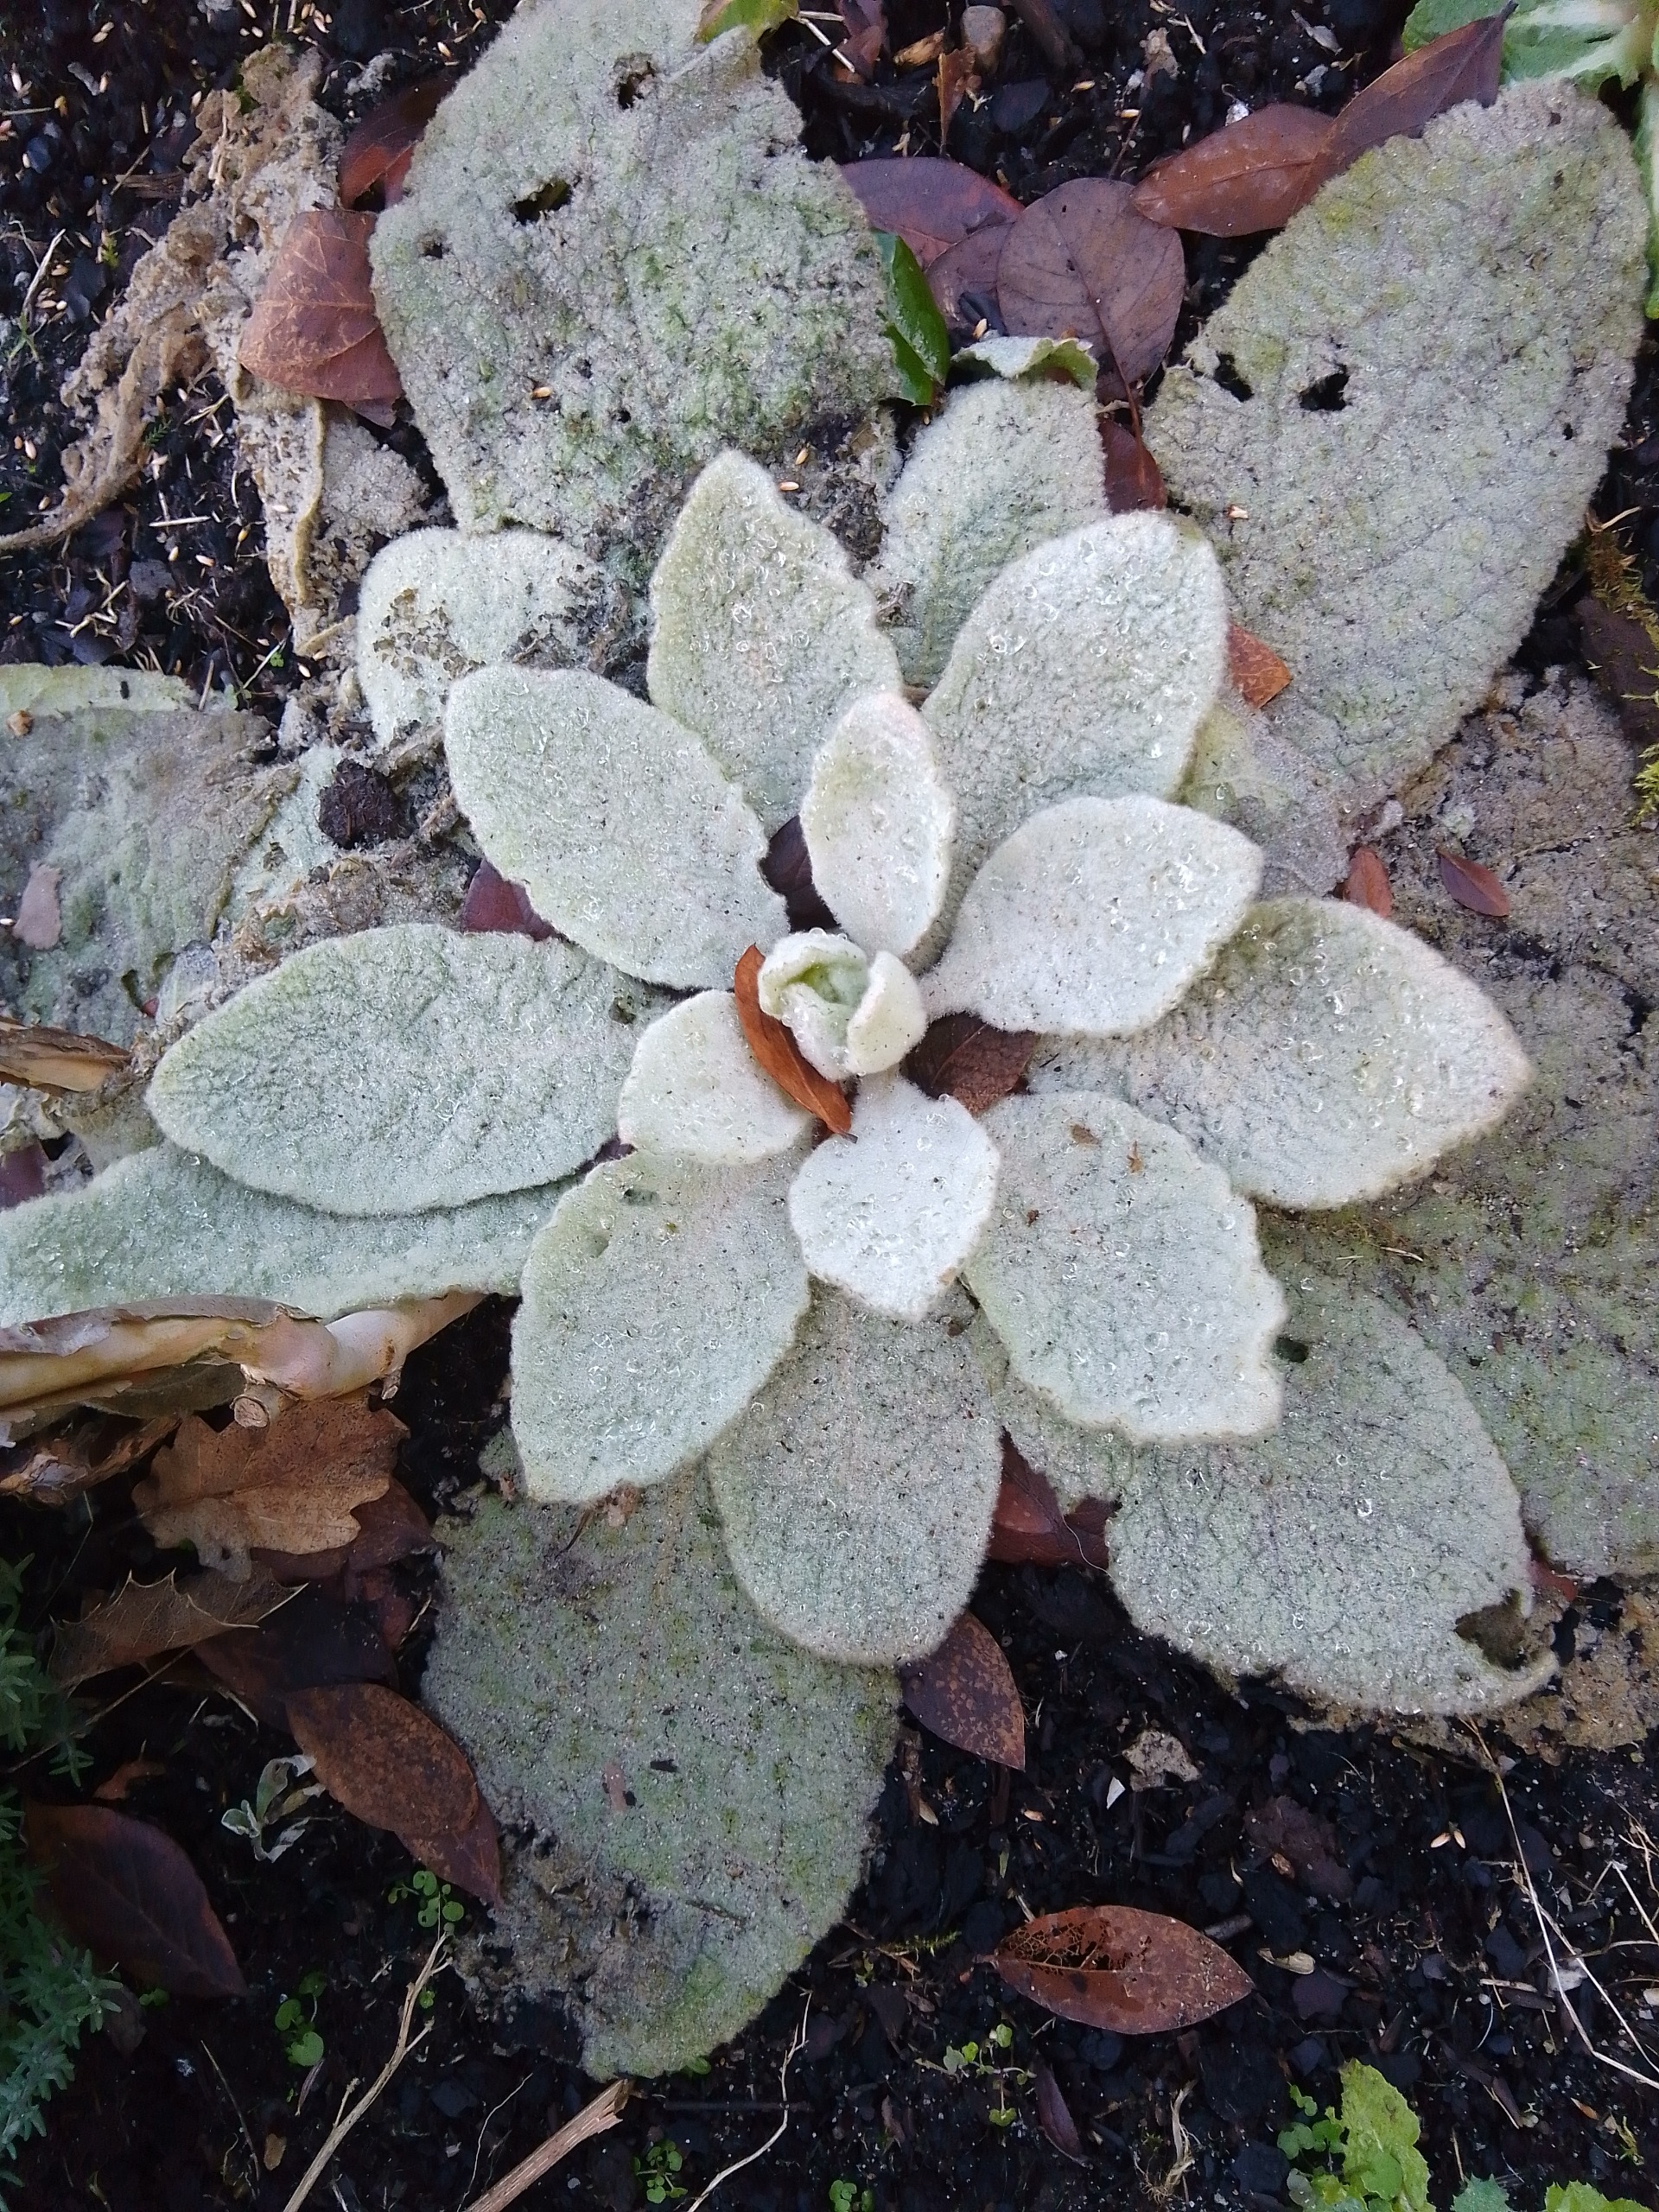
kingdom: Plantae
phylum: Tracheophyta
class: Magnoliopsida
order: Lamiales
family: Scrophulariaceae
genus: Verbascum
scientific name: Verbascum thapsus
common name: Filtbladet kongelys
